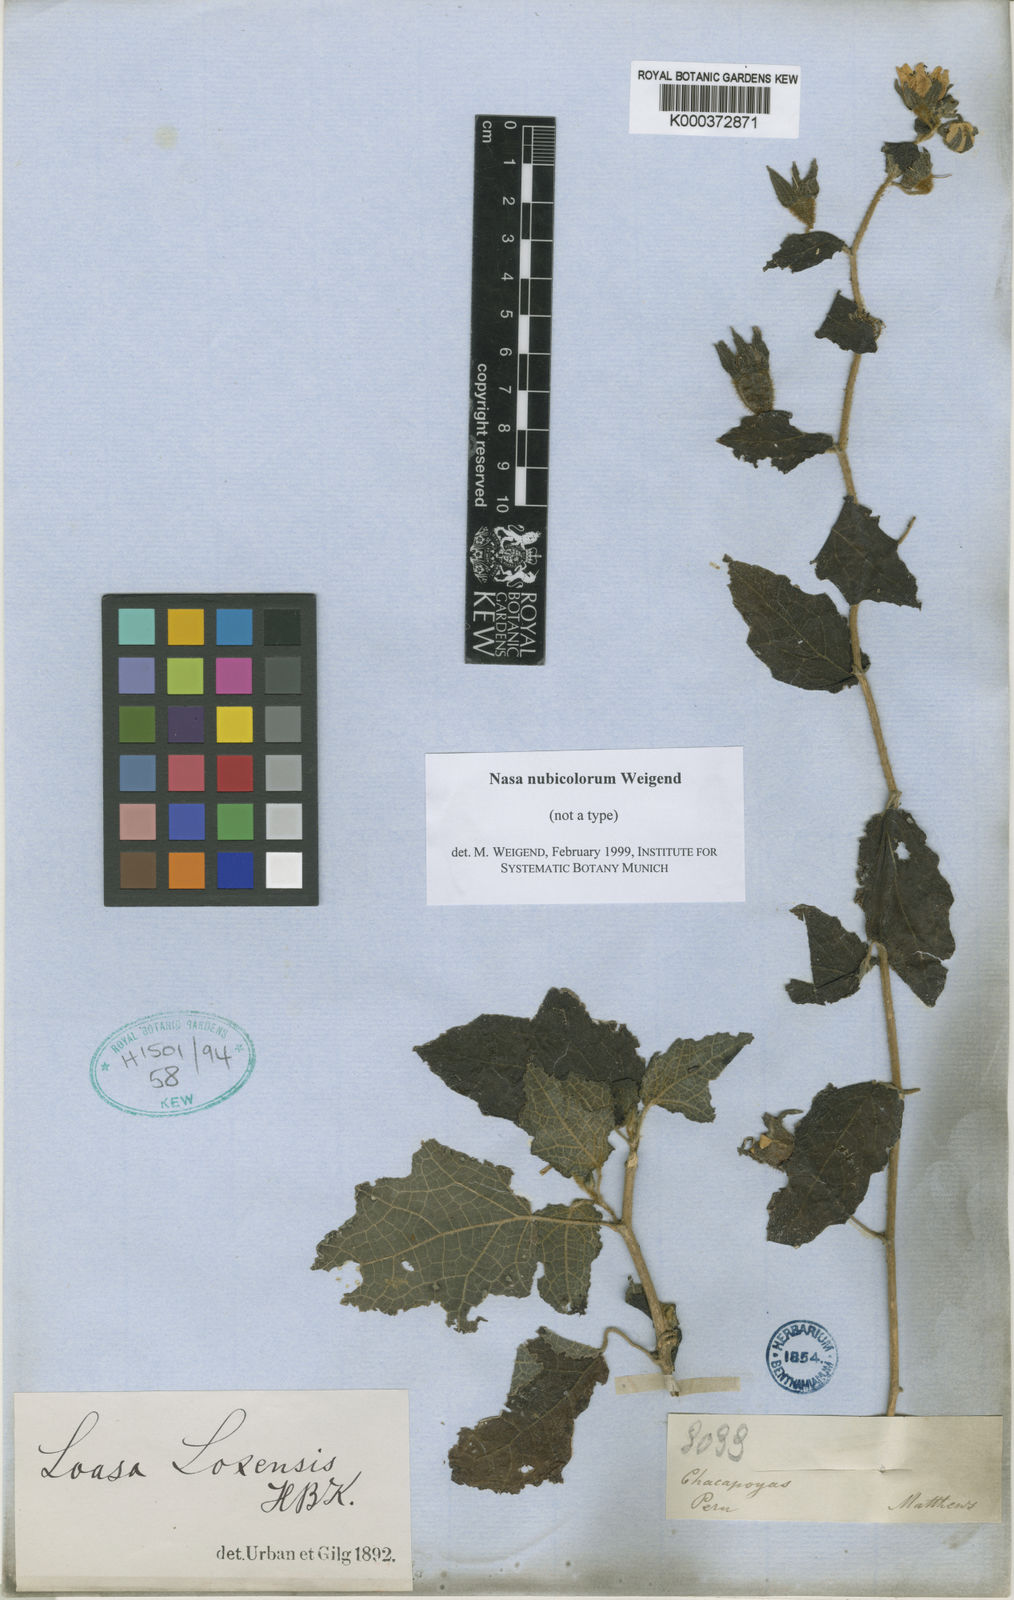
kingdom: Plantae
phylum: Tracheophyta
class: Magnoliopsida
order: Cornales
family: Loasaceae
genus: Nasa
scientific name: Nasa nubicolorum
